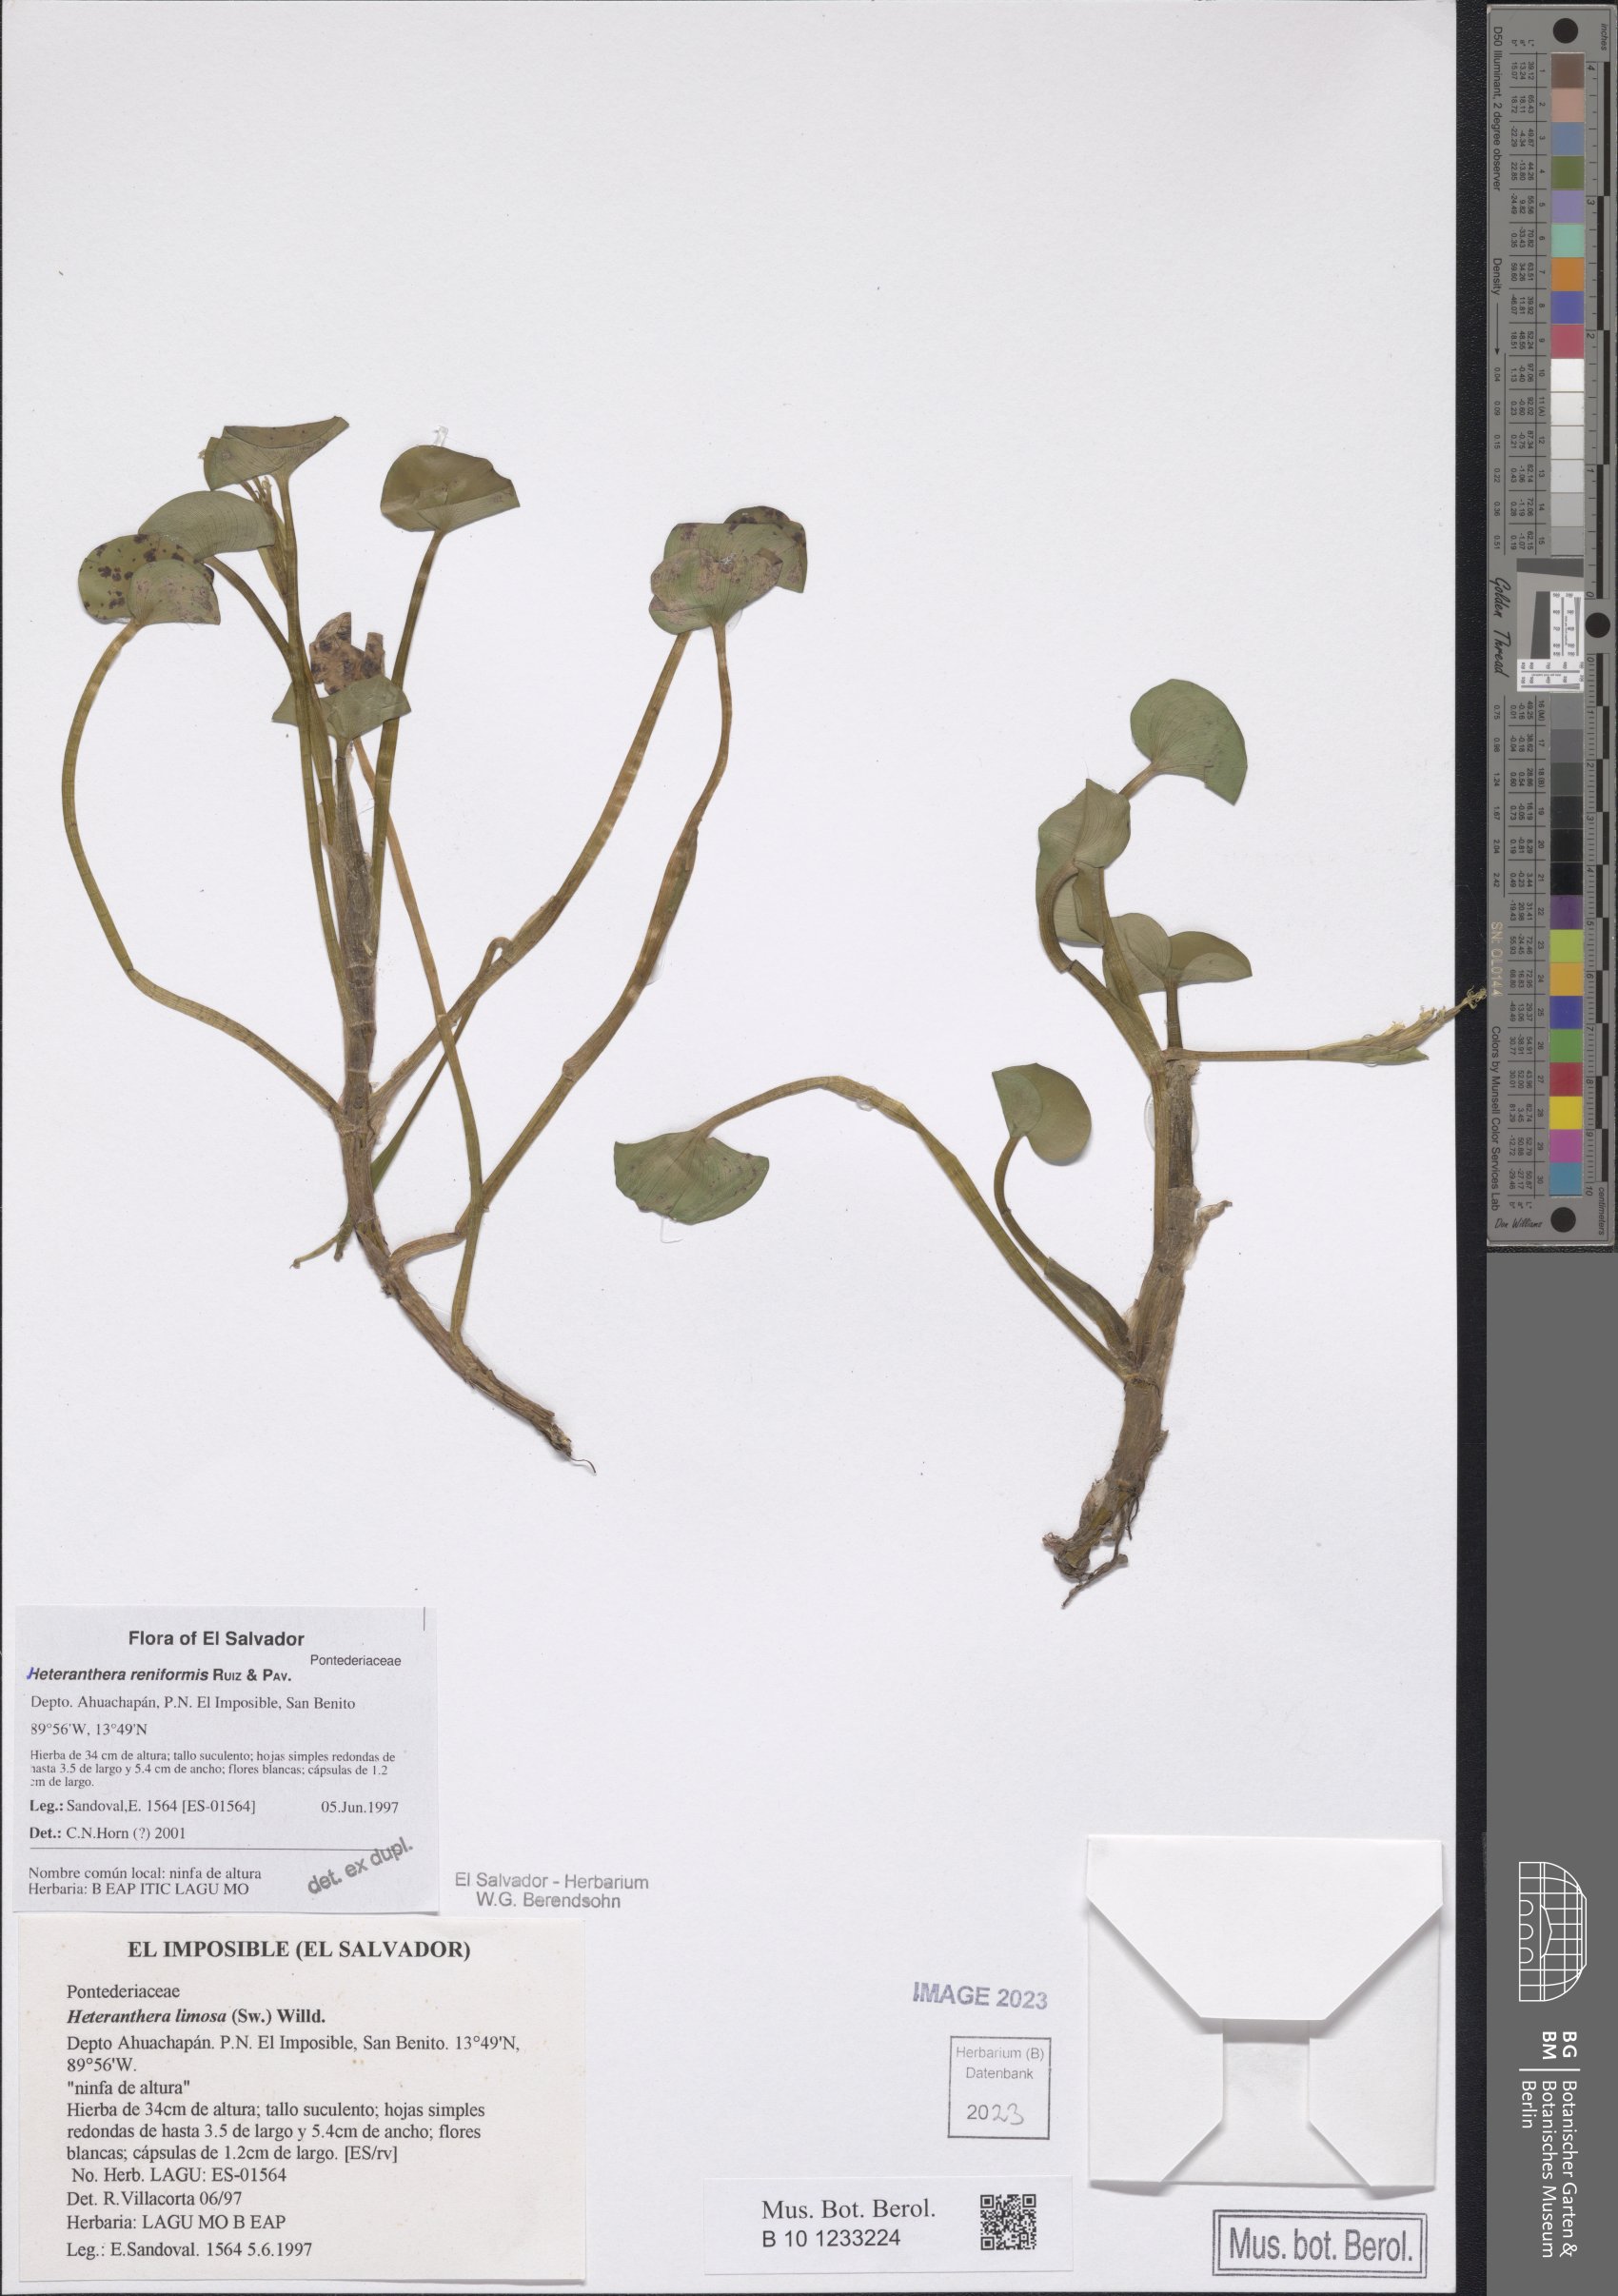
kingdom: Plantae
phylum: Tracheophyta
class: Liliopsida
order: Commelinales
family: Pontederiaceae
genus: Heteranthera
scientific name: Heteranthera reniformis
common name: Kidneyleaf mudplantain
